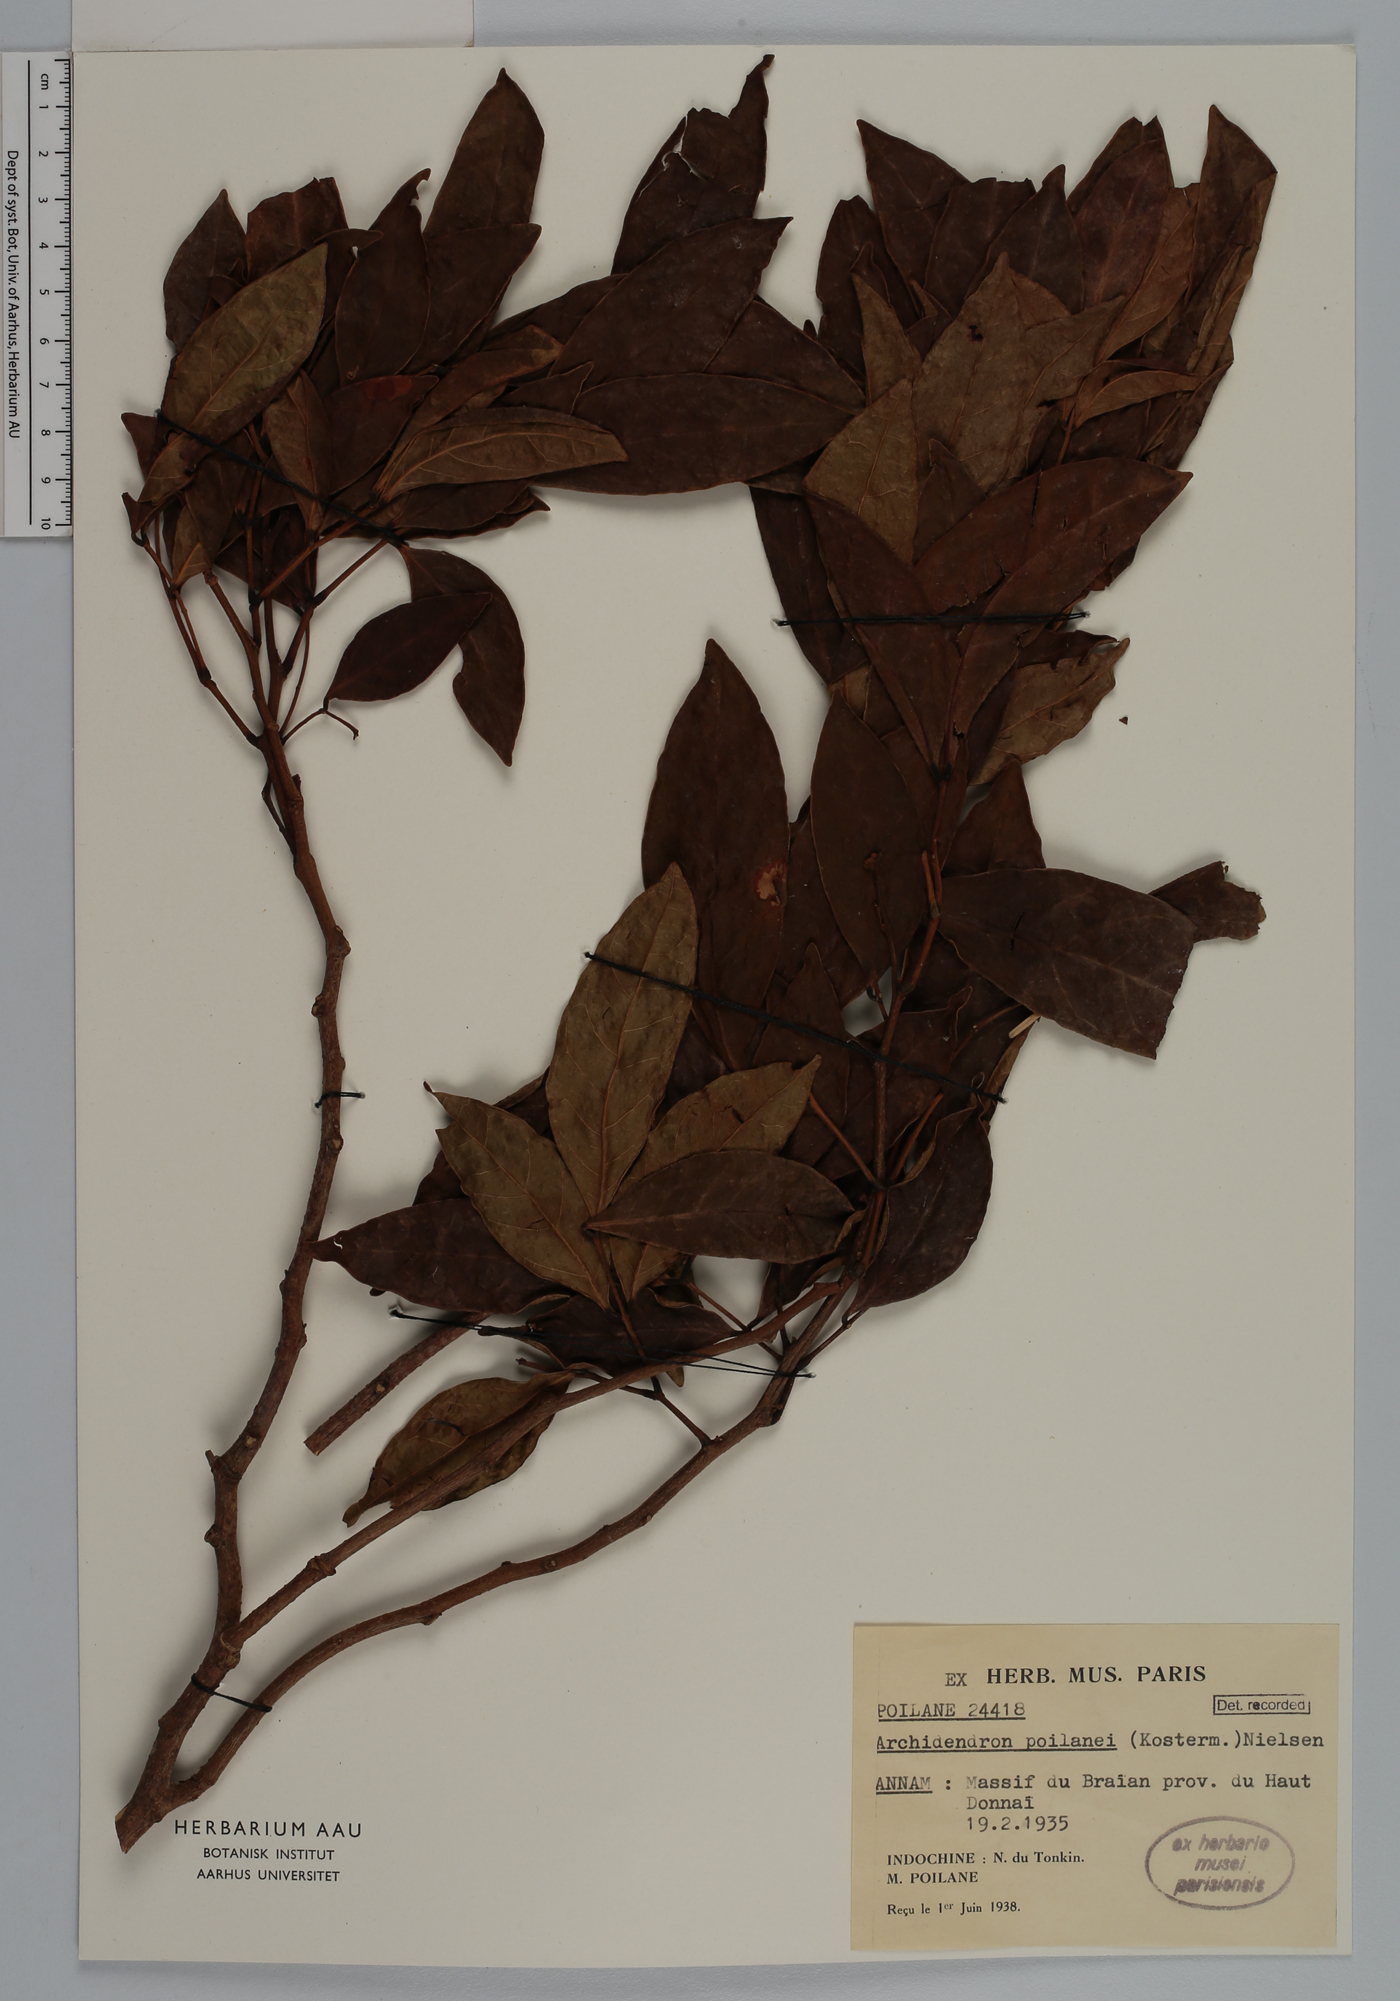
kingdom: Plantae
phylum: Tracheophyta
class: Magnoliopsida
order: Fabales
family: Fabaceae
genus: Archidendron
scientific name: Archidendron poilanei
